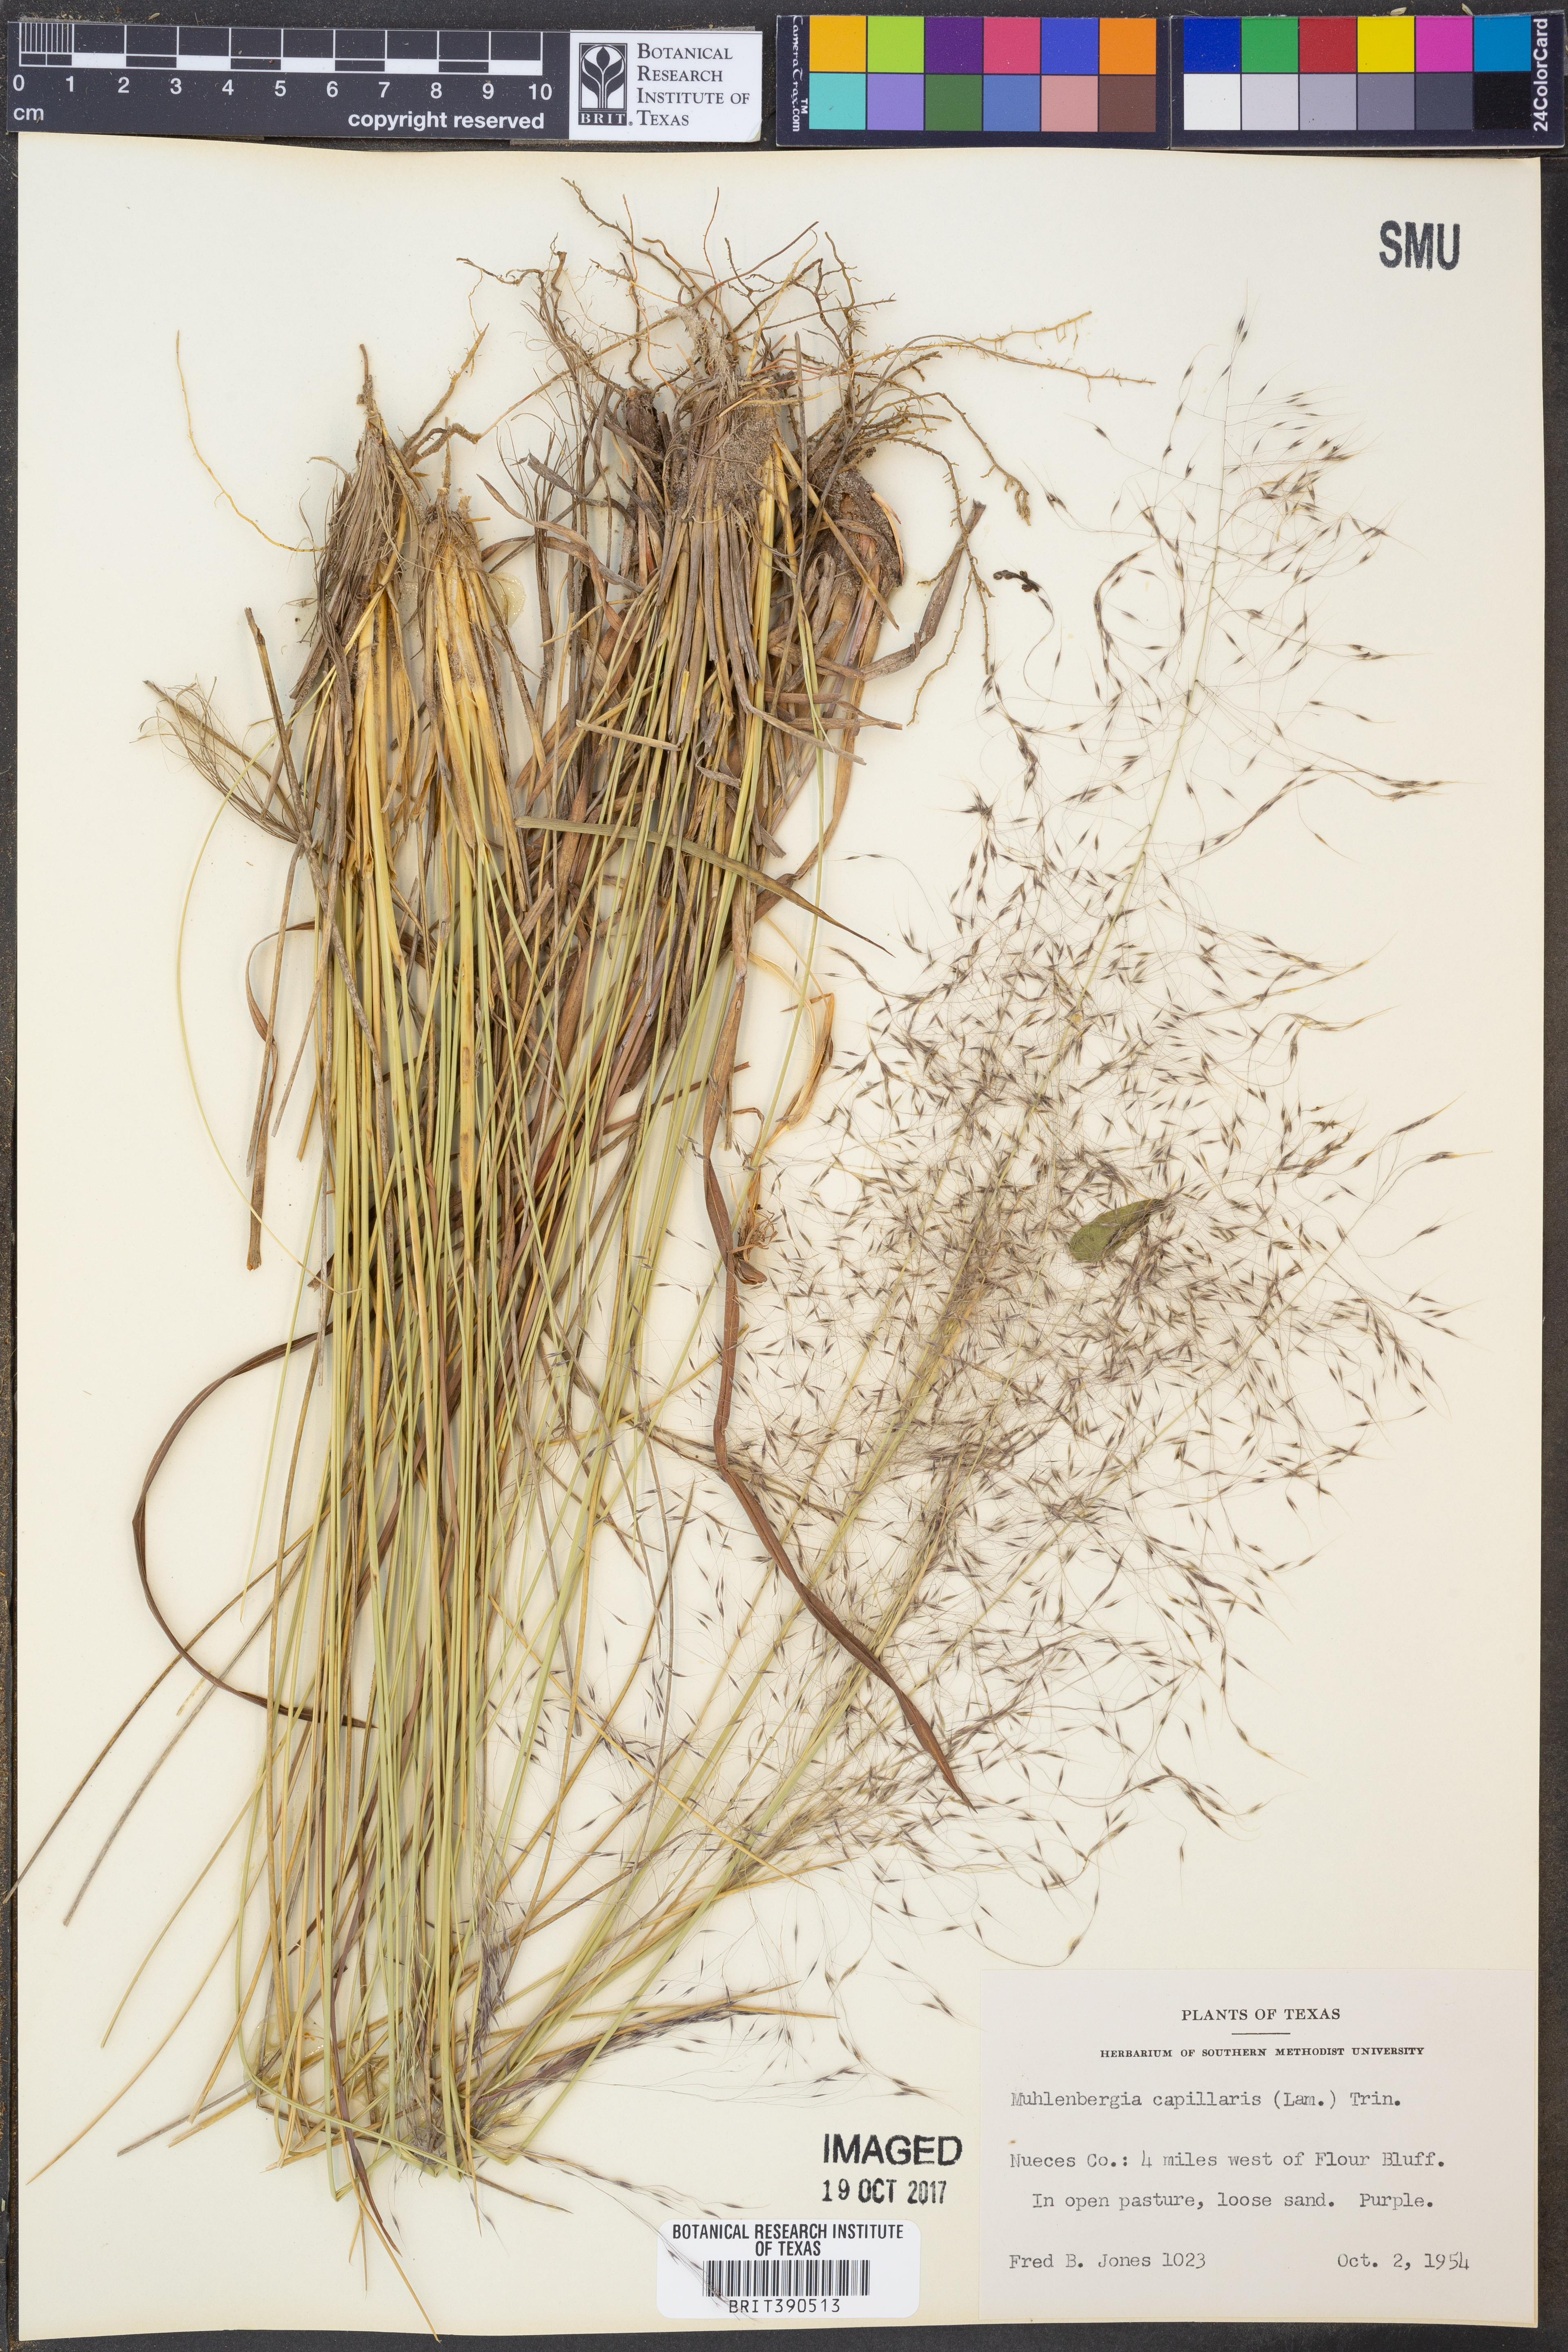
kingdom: Plantae
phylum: Tracheophyta
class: Liliopsida
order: Poales
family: Poaceae
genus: Muhlenbergia
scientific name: Muhlenbergia capillaris
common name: Purple grass
